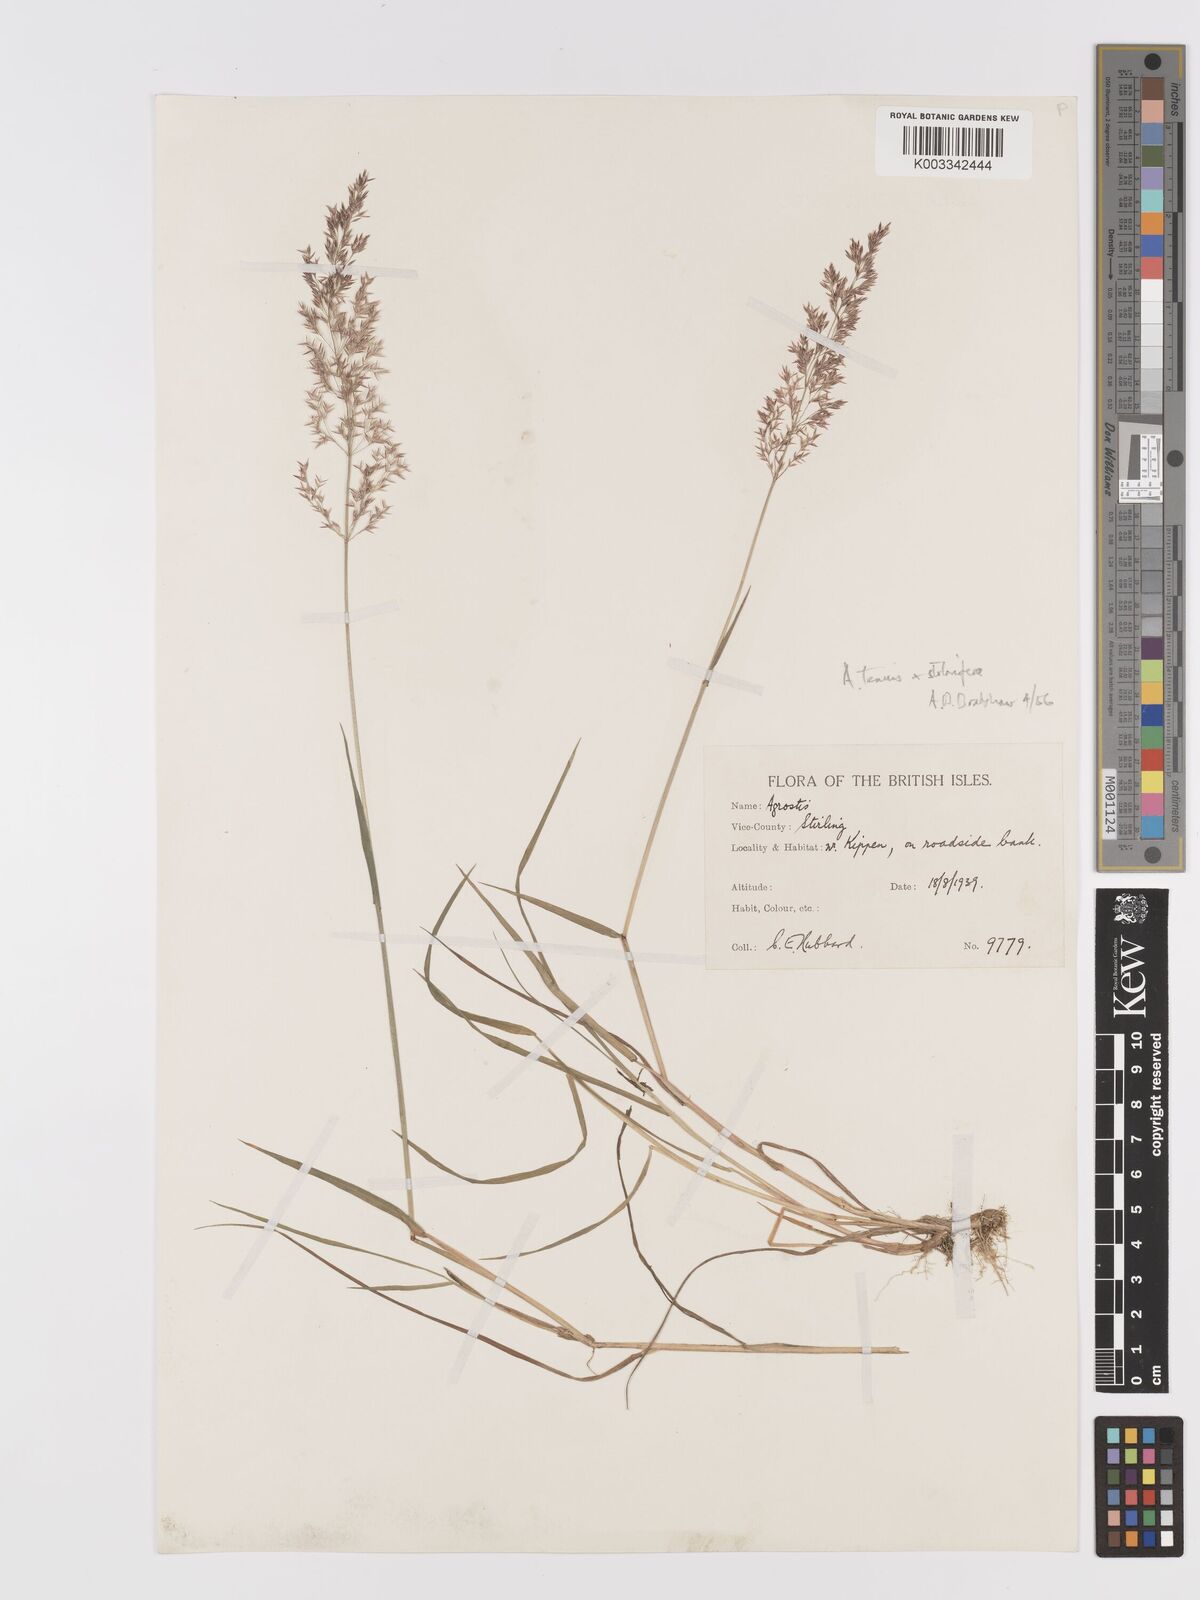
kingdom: Plantae
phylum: Tracheophyta
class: Liliopsida
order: Poales
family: Poaceae
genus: Agrostis
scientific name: Agrostis capillaris
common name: Colonial bentgrass
